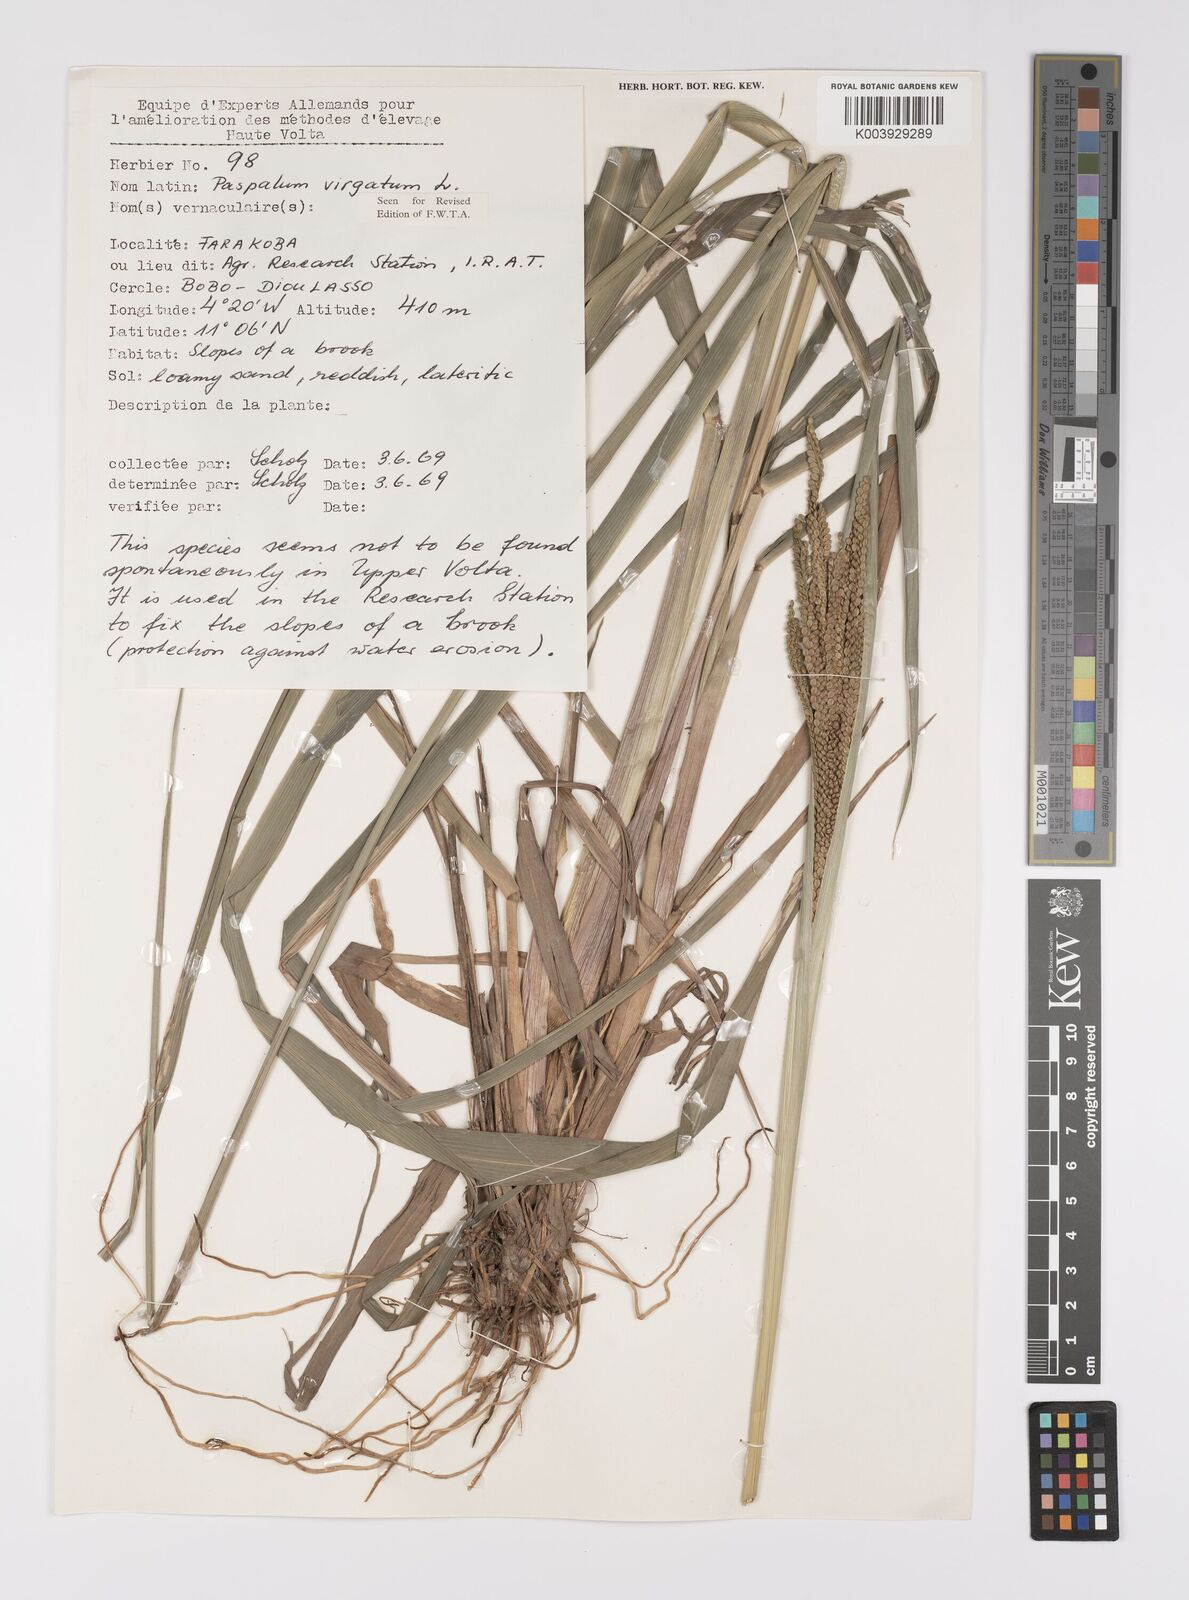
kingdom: Plantae
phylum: Tracheophyta
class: Liliopsida
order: Poales
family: Poaceae
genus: Paspalum
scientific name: Paspalum virgatum
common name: Talquezal
